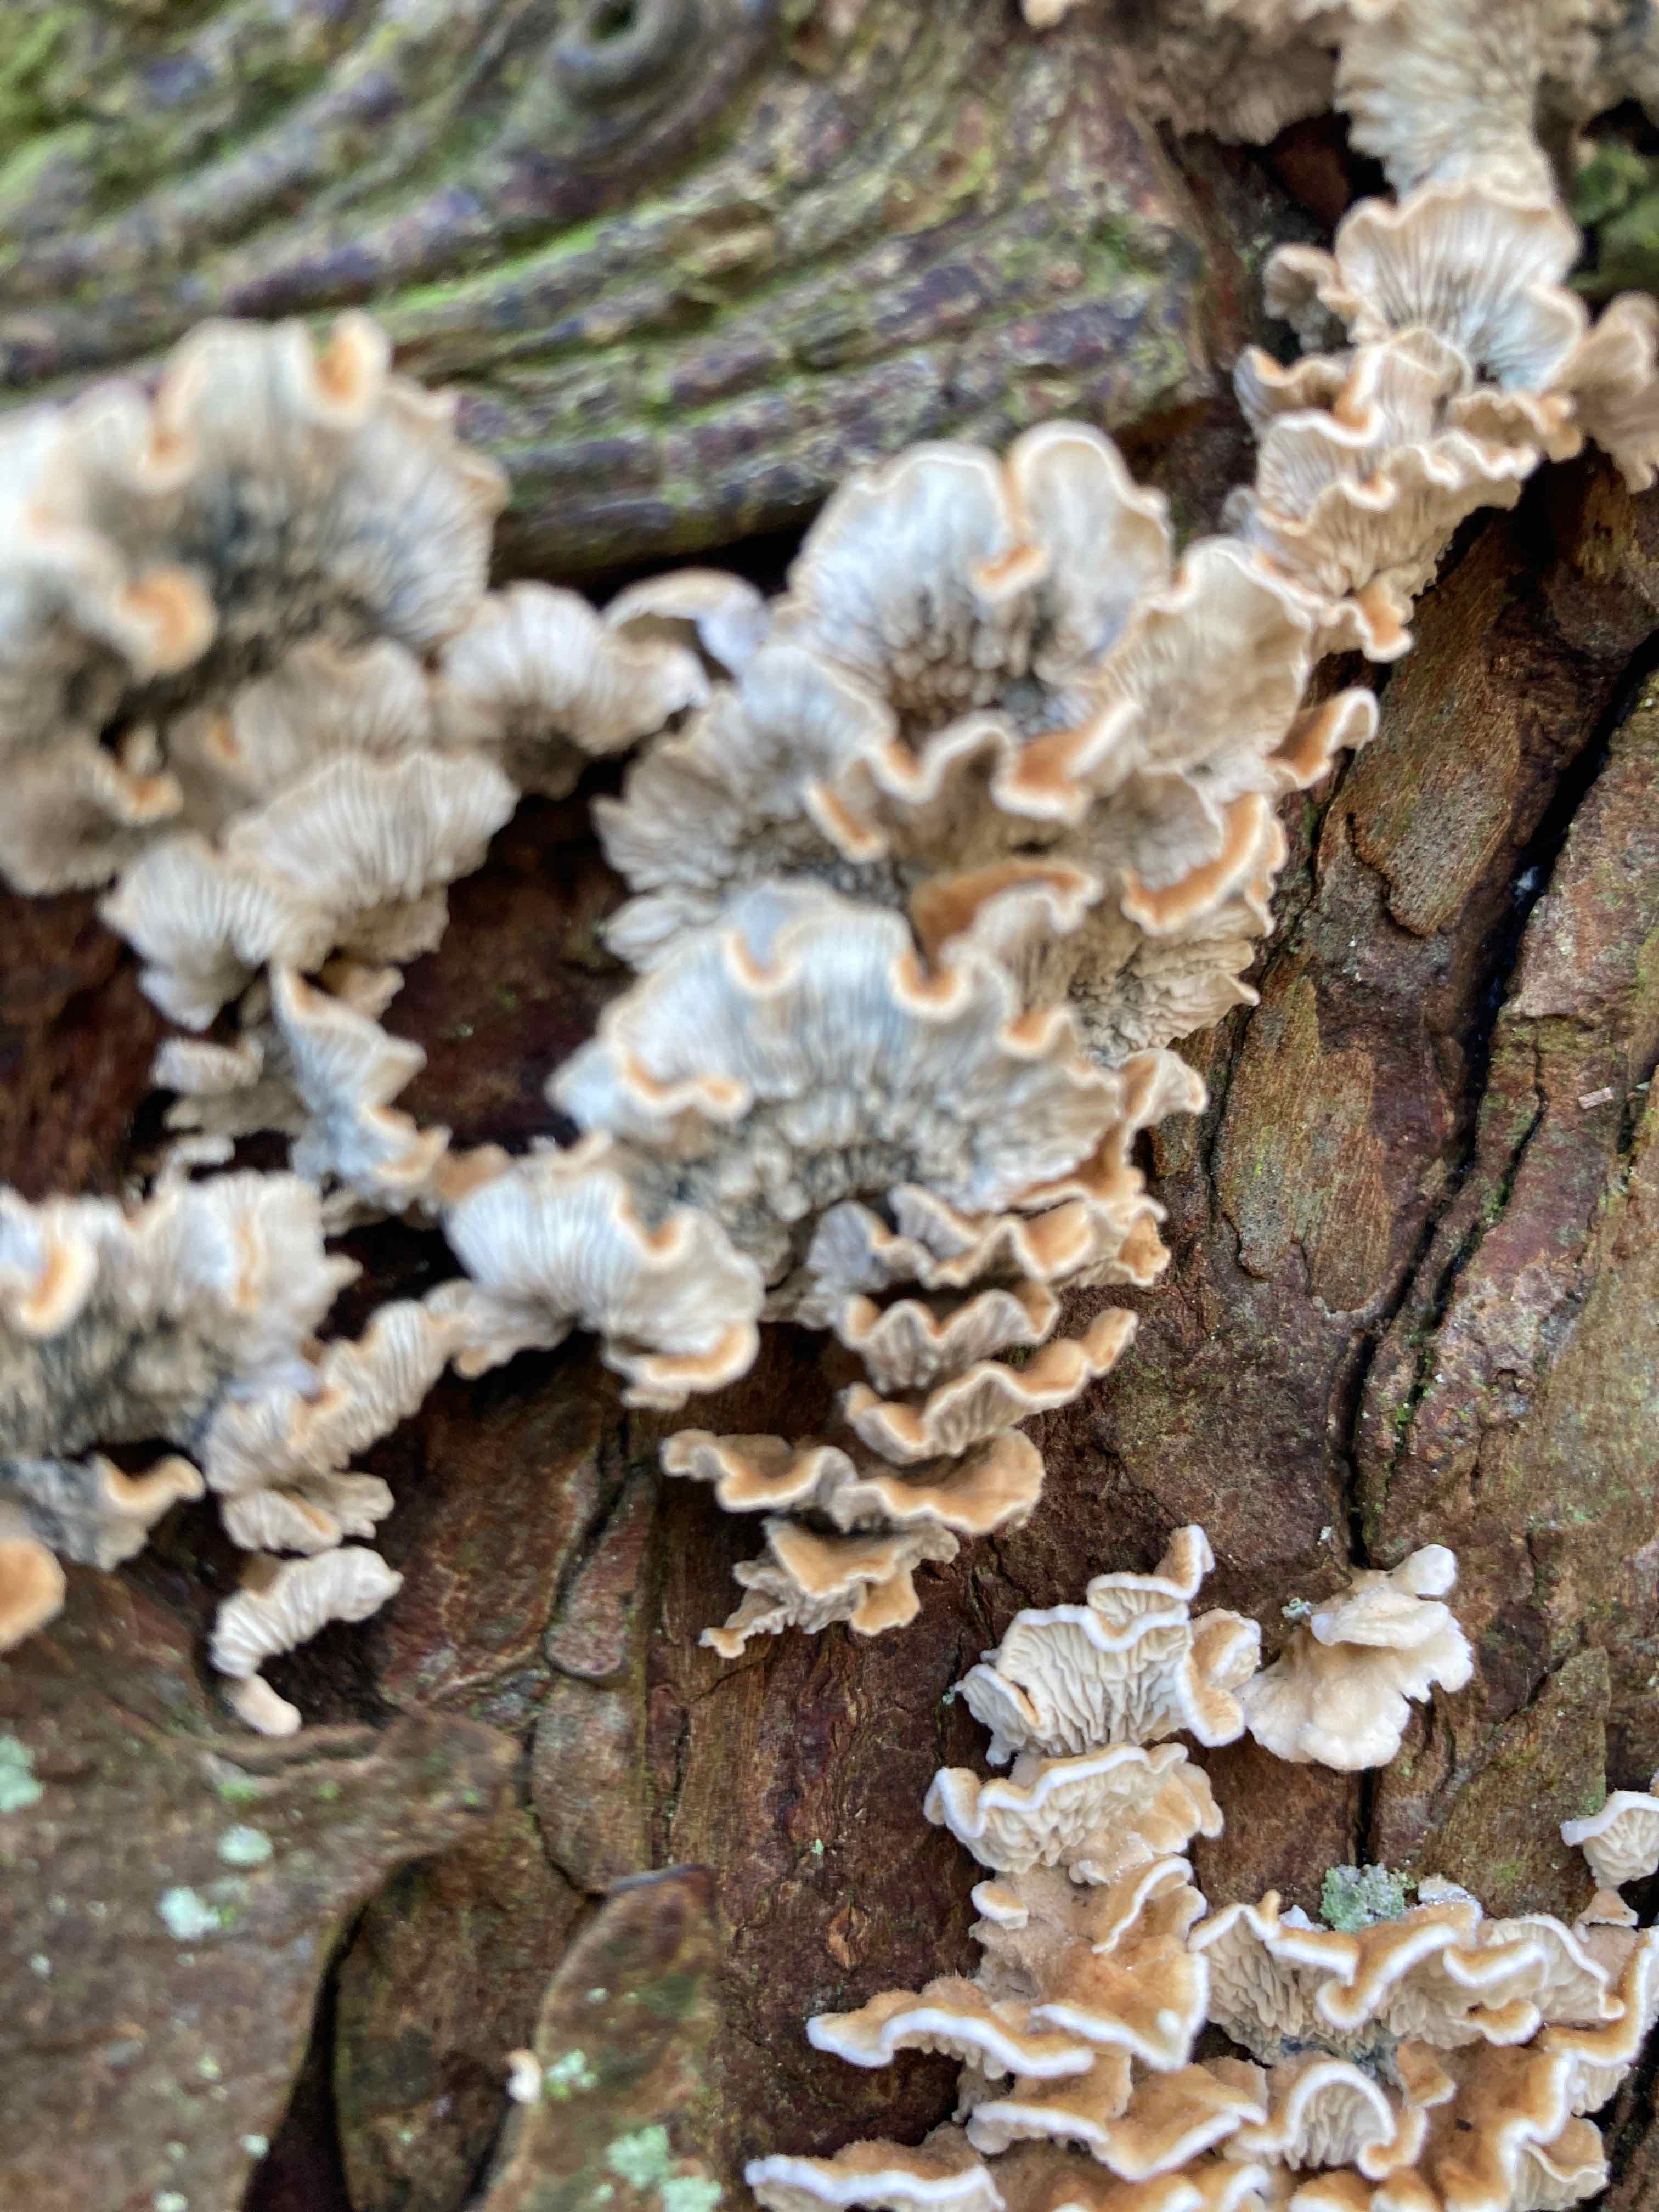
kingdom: Fungi
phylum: Basidiomycota
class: Agaricomycetes
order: Amylocorticiales
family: Amylocorticiaceae
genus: Plicaturopsis
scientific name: Plicaturopsis crispa
